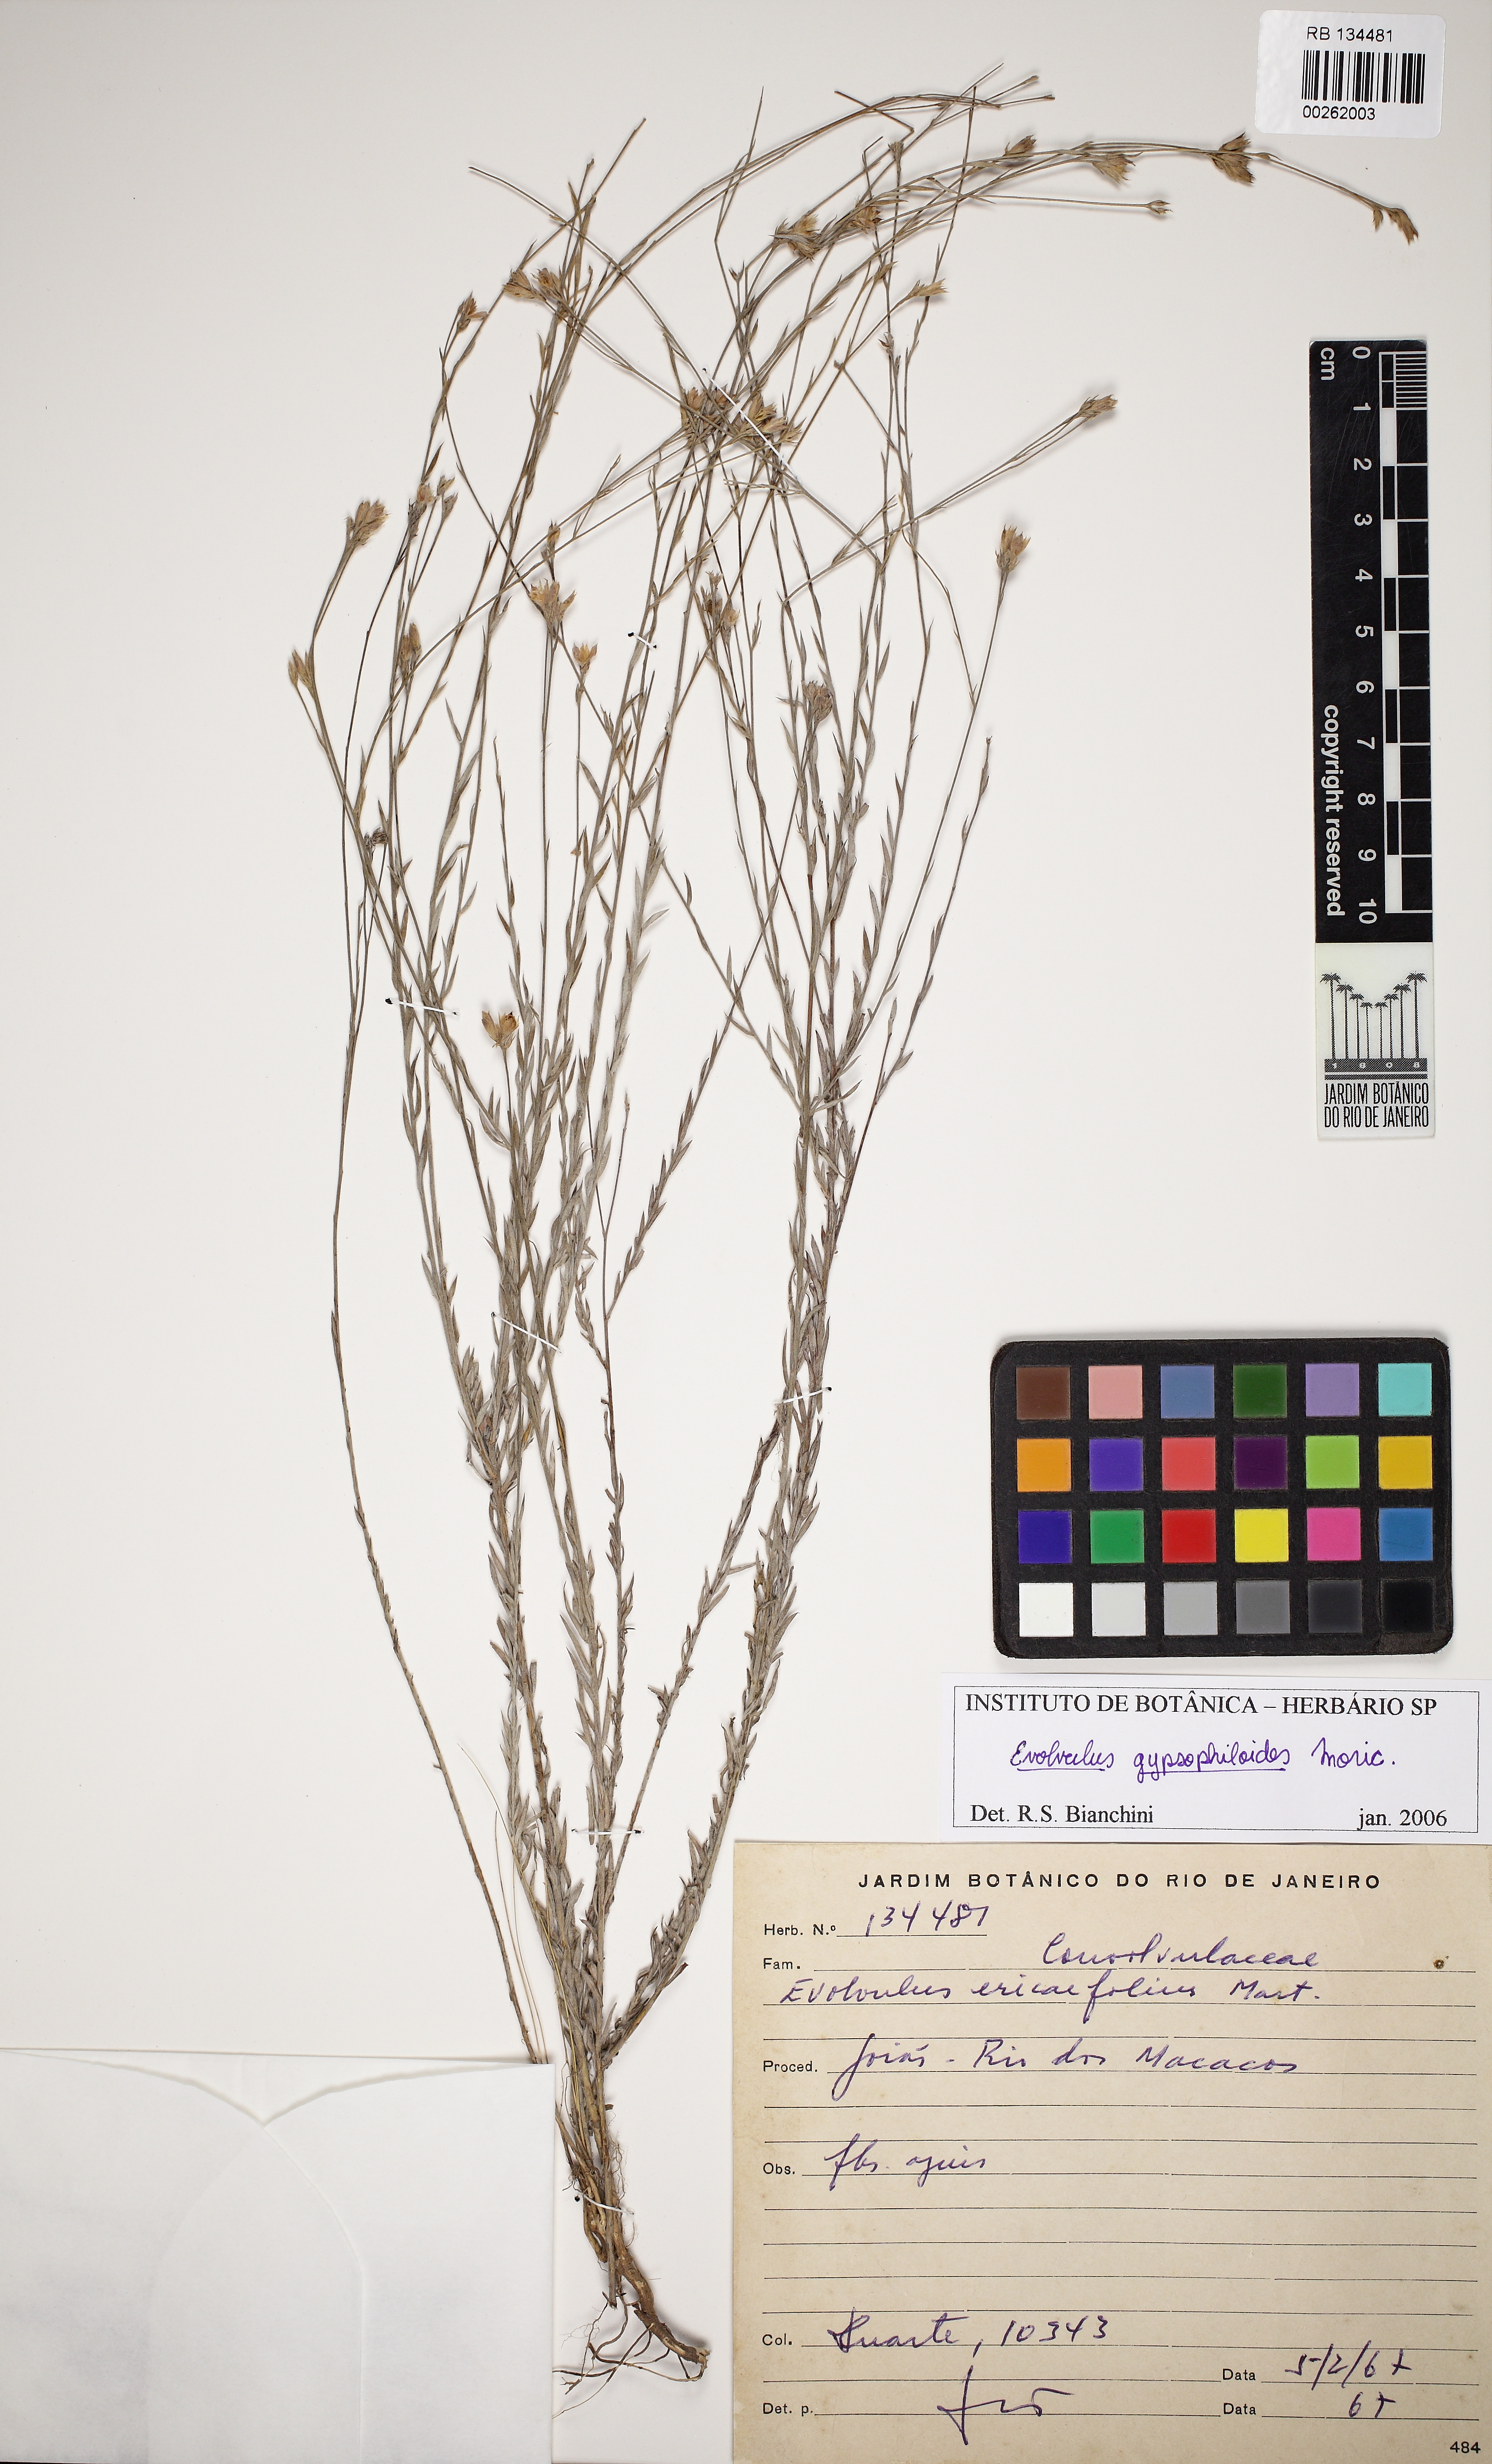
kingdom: Plantae
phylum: Tracheophyta
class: Magnoliopsida
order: Solanales
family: Convolvulaceae
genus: Evolvulus
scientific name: Evolvulus gypsophiloides
